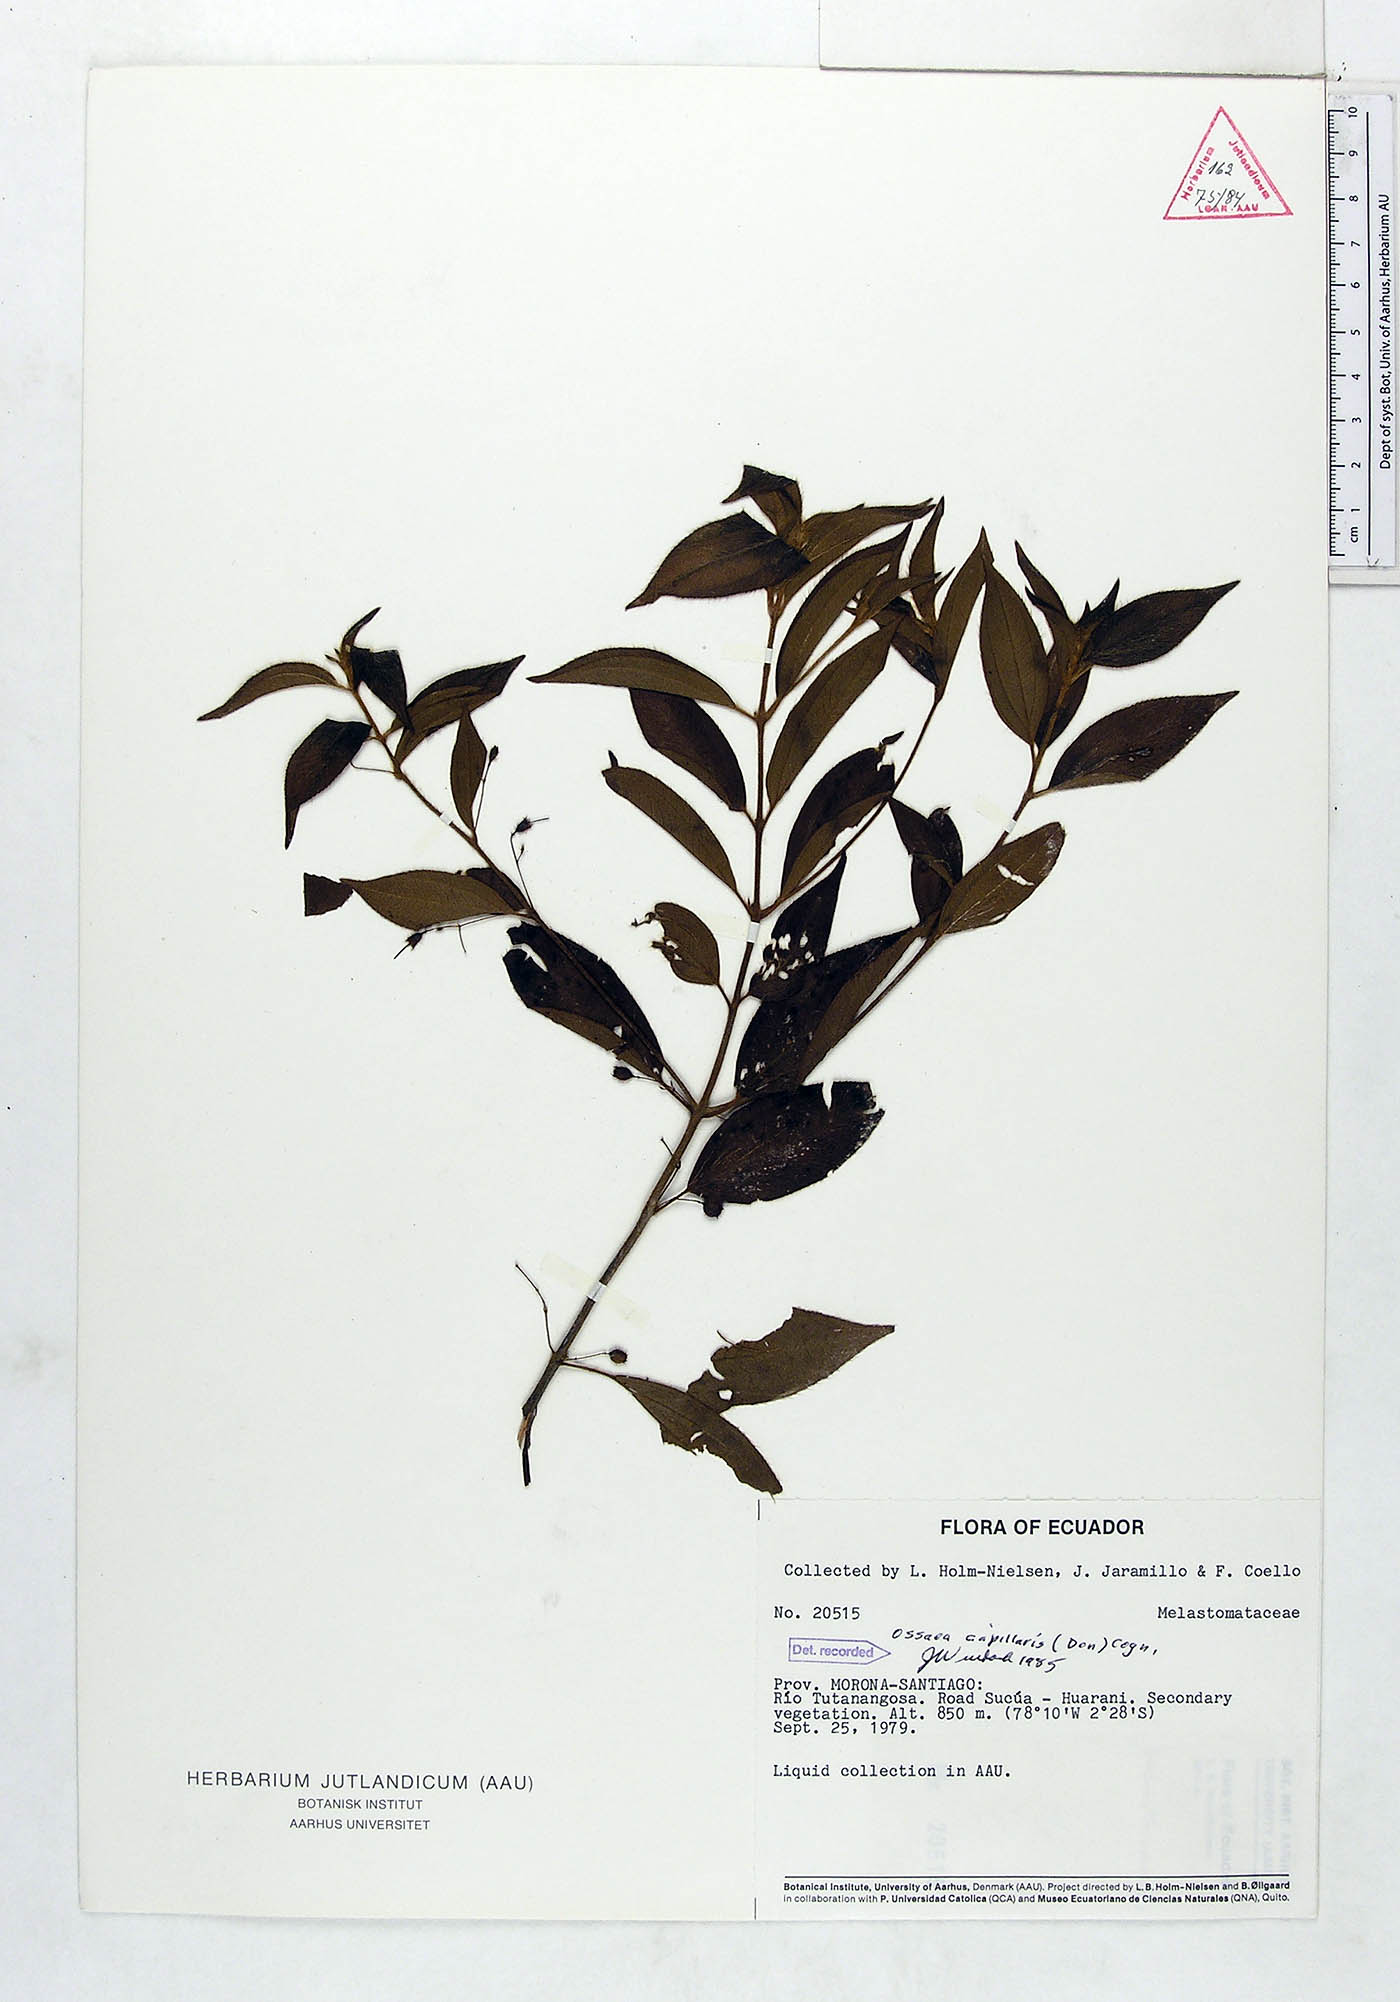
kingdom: Plantae
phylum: Tracheophyta
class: Magnoliopsida
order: Myrtales
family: Melastomataceae
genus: Miconia
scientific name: Miconia leptopus
